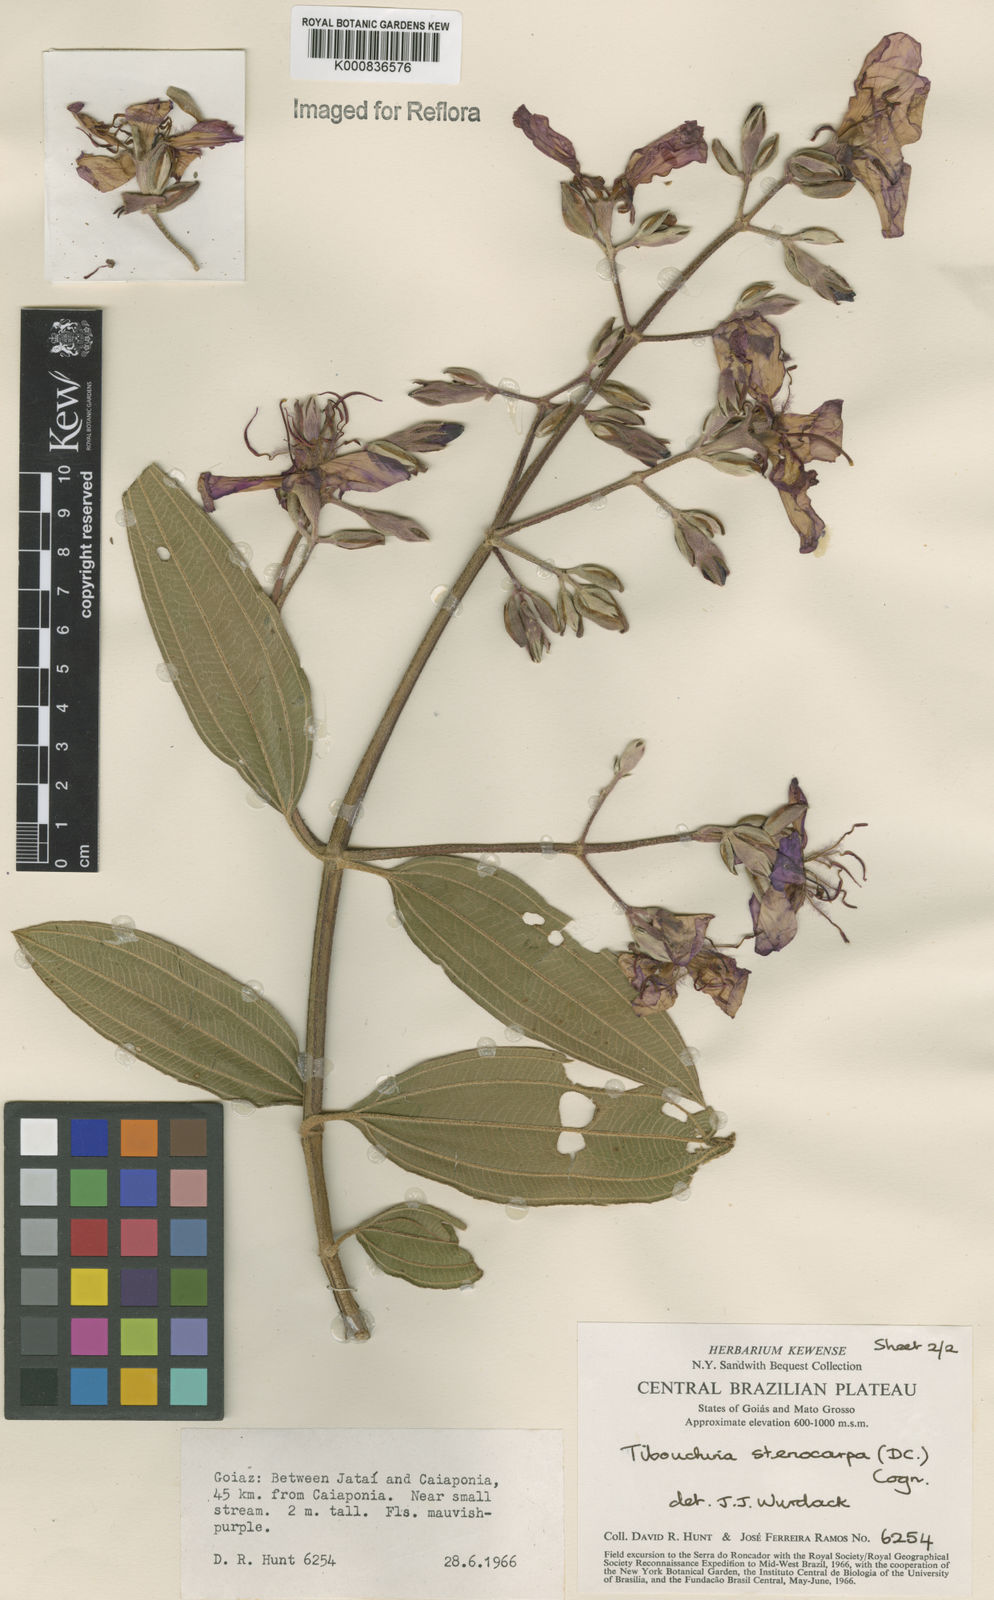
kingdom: Plantae
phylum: Tracheophyta
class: Magnoliopsida
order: Myrtales
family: Melastomataceae
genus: Pleroma
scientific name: Pleroma stenocarpum
